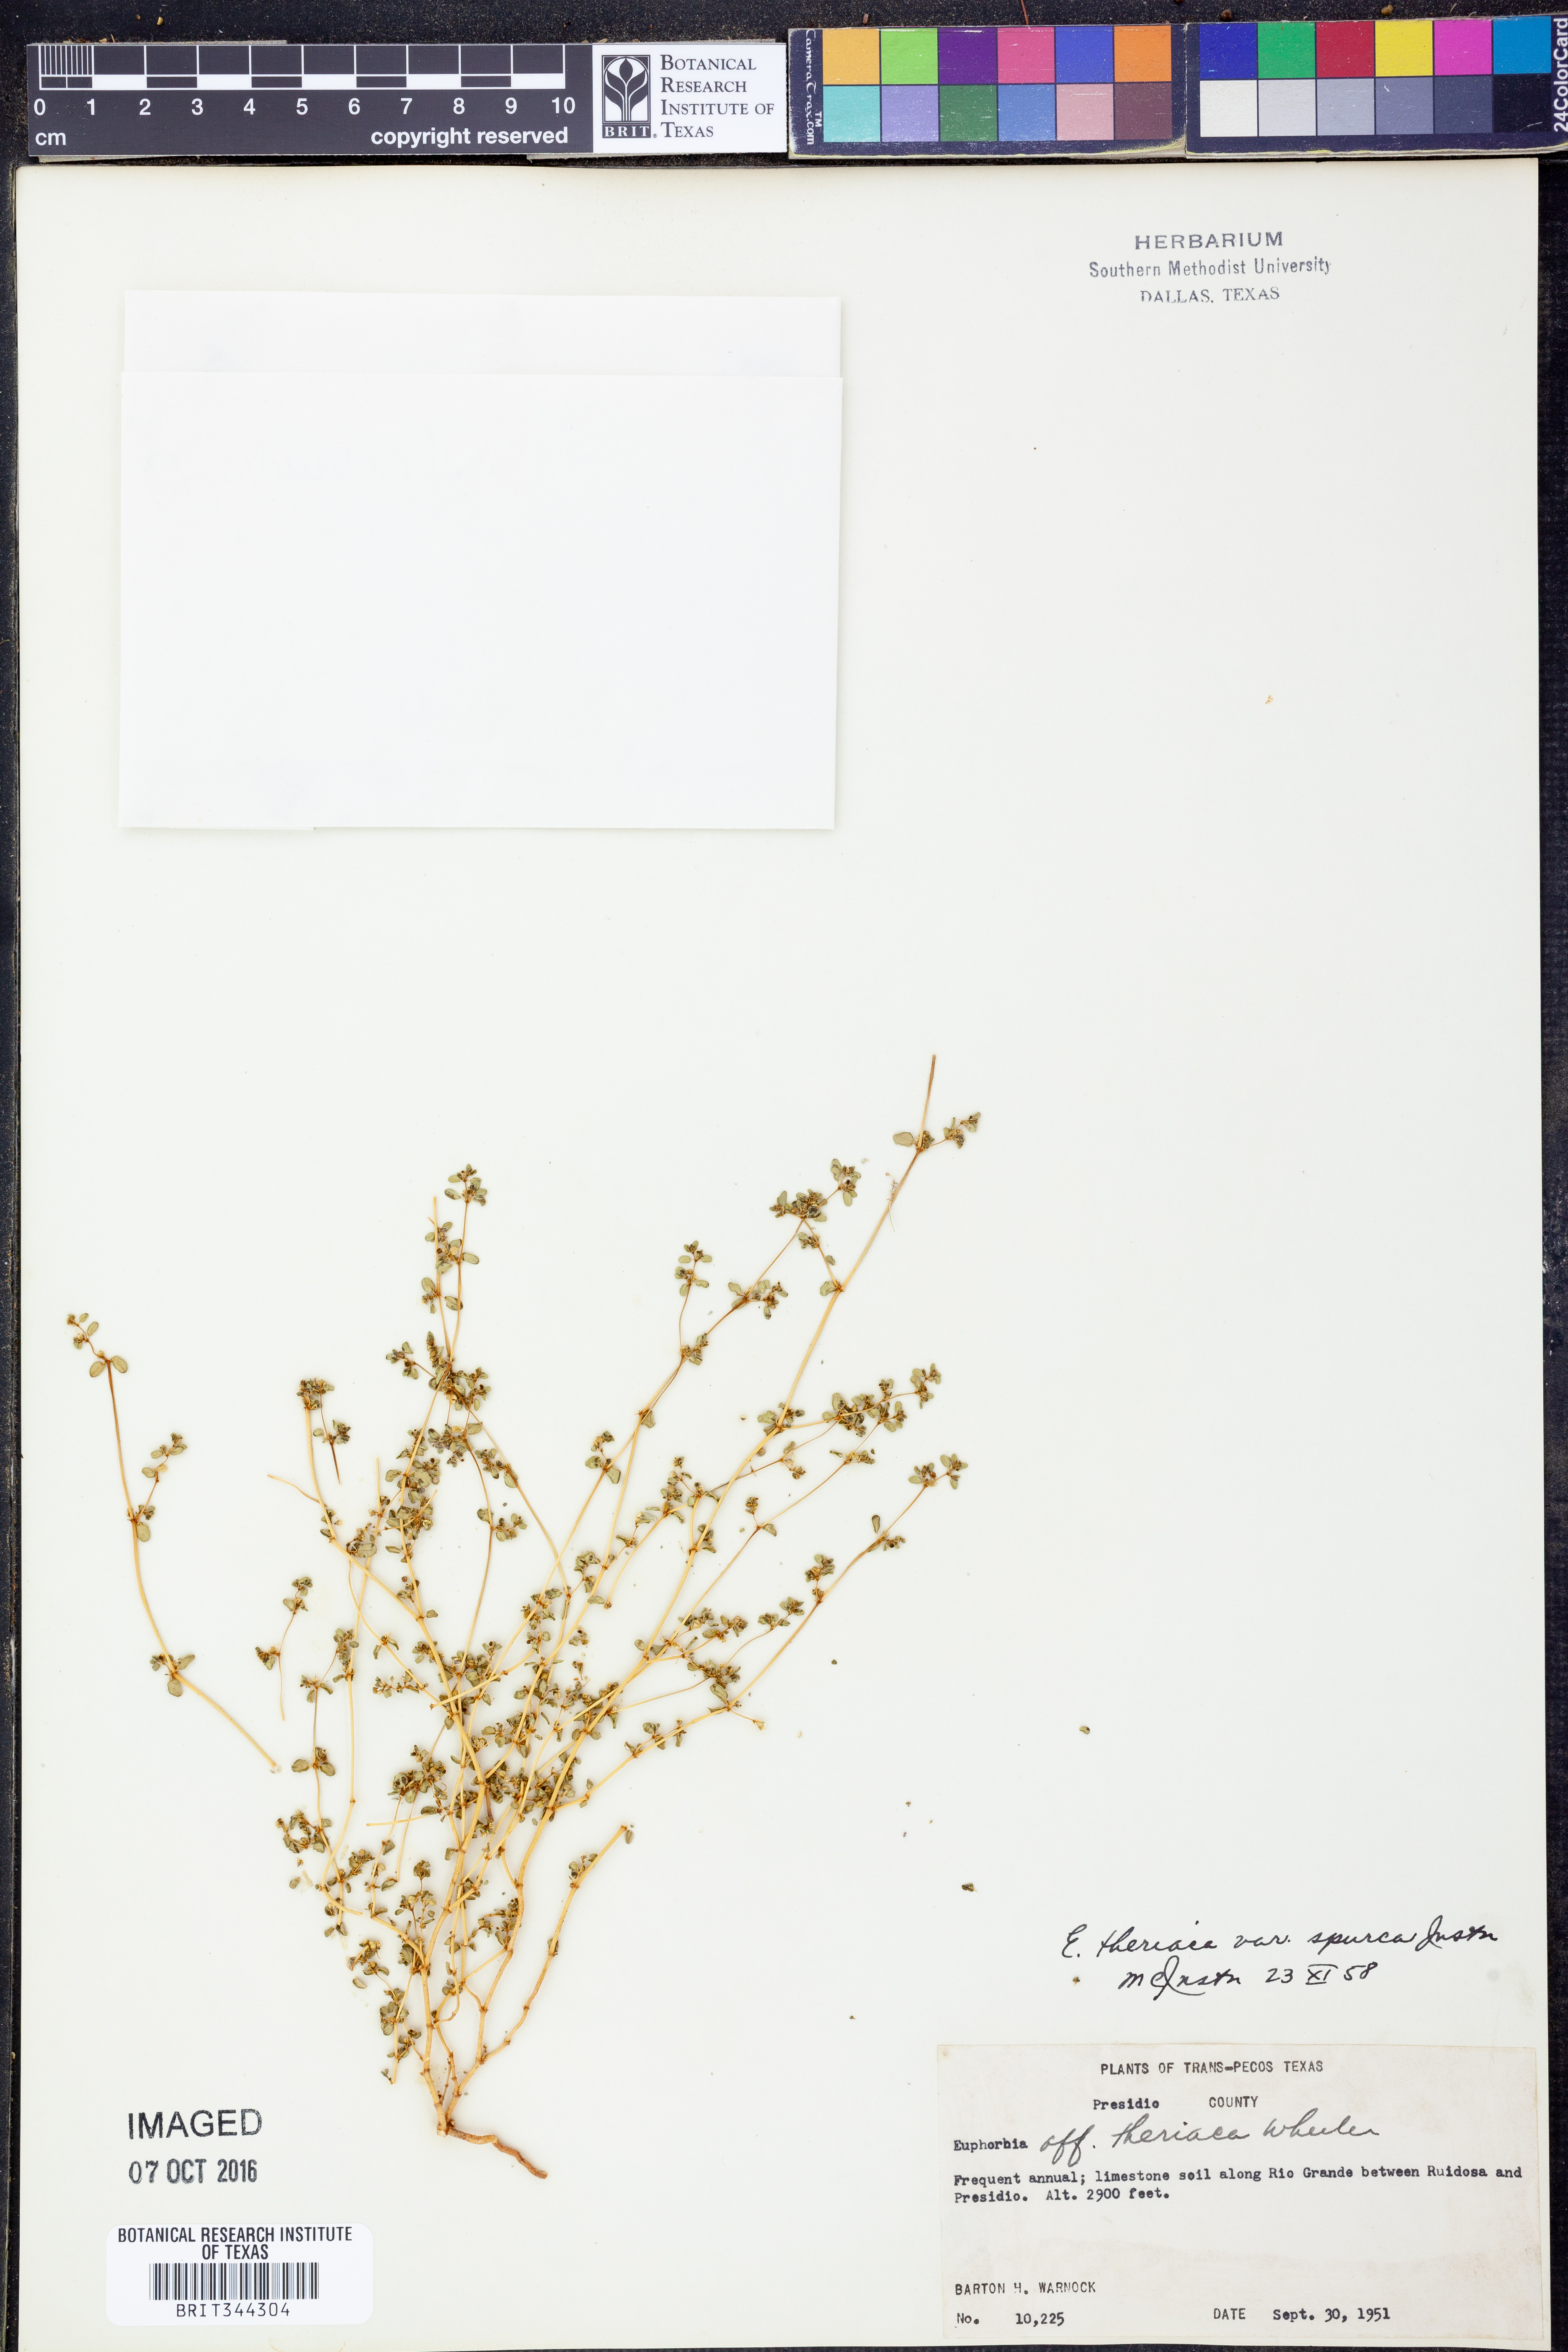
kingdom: Plantae
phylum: Tracheophyta
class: Magnoliopsida
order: Malpighiales
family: Euphorbiaceae
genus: Euphorbia
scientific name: Euphorbia spurca
